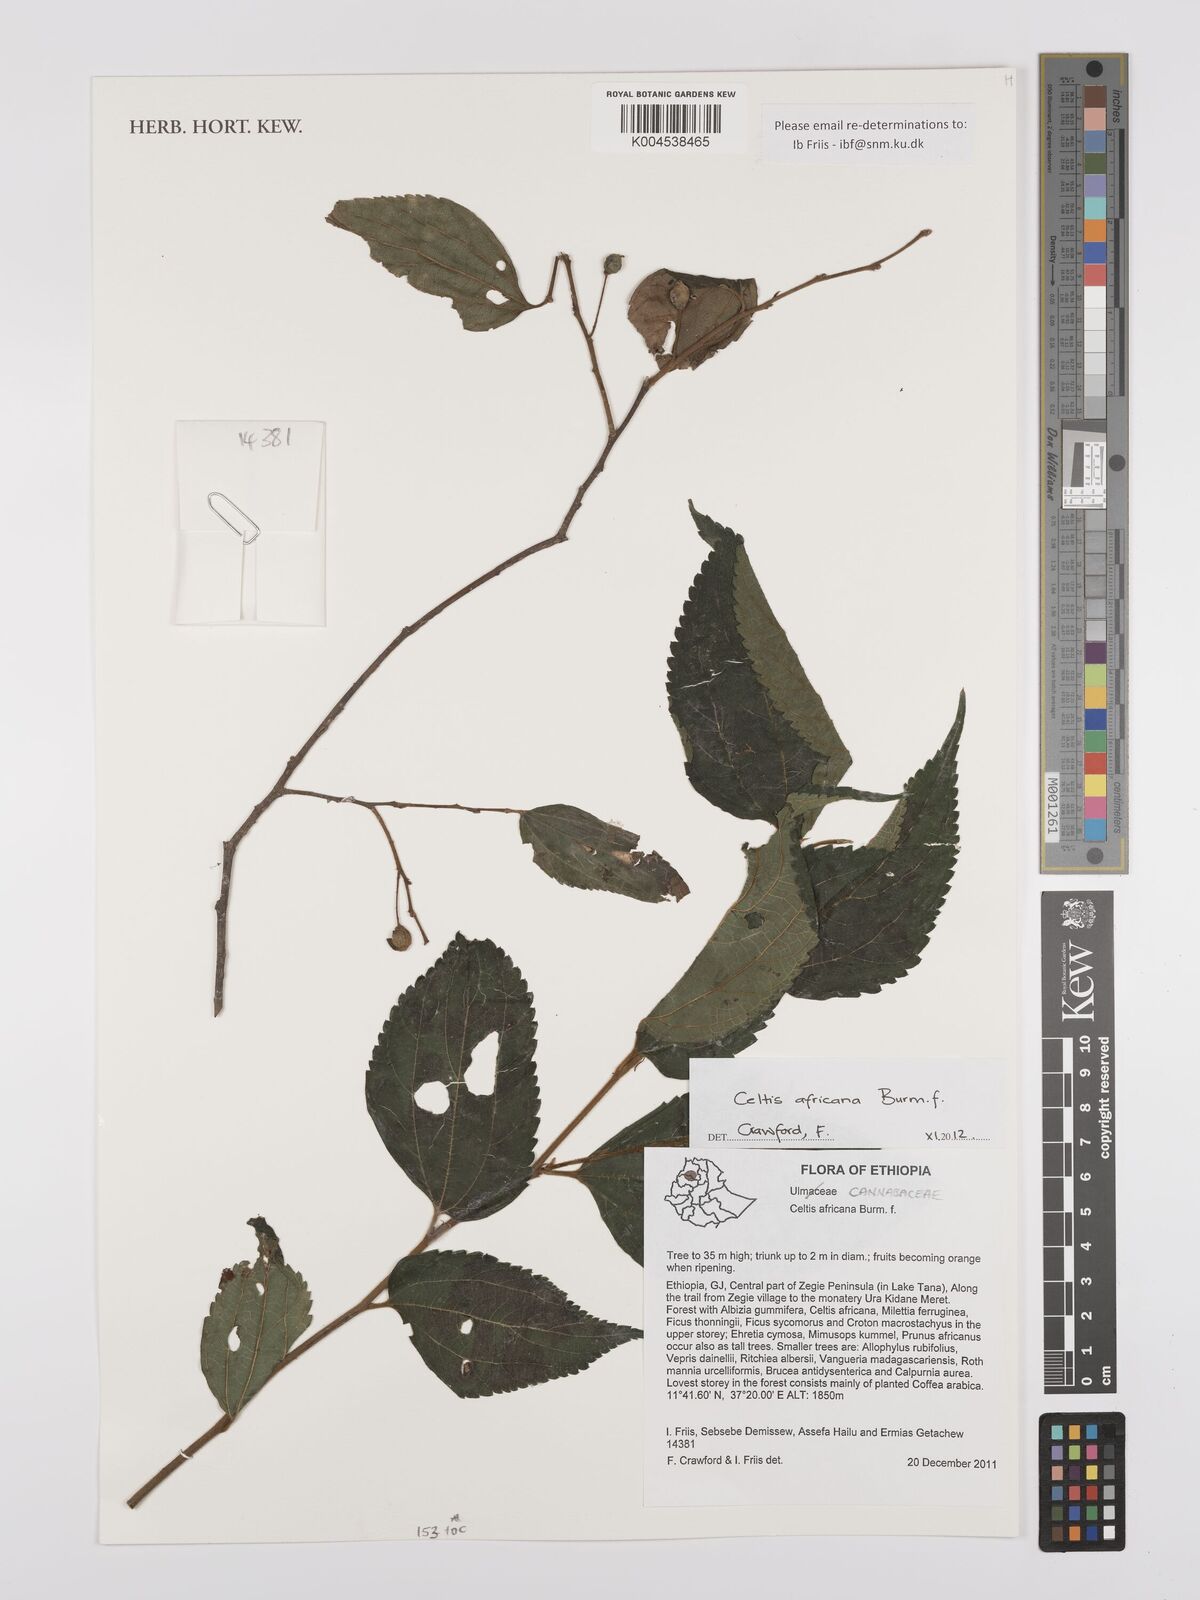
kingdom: Plantae
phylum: Tracheophyta
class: Magnoliopsida
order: Rosales
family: Cannabaceae
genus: Celtis
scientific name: Celtis africana
